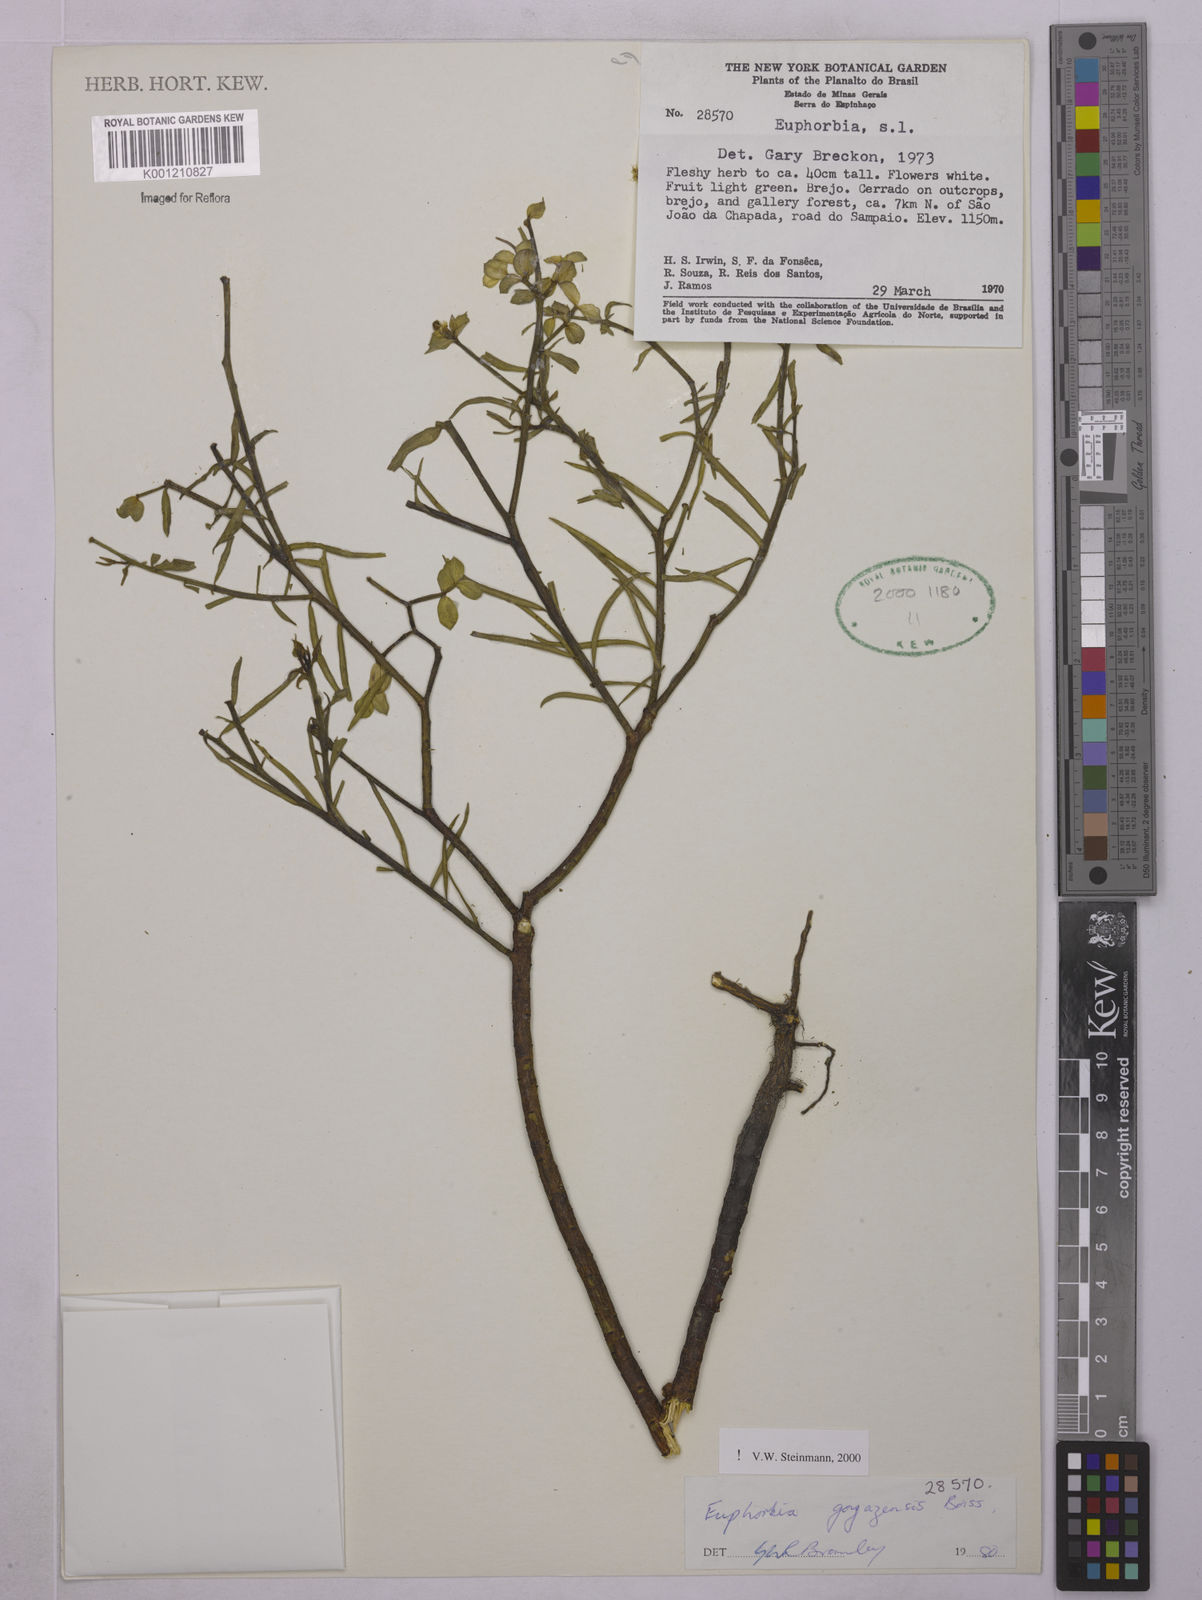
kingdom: Plantae
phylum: Tracheophyta
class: Magnoliopsida
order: Malpighiales
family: Euphorbiaceae
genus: Euphorbia
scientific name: Euphorbia goyazensis
